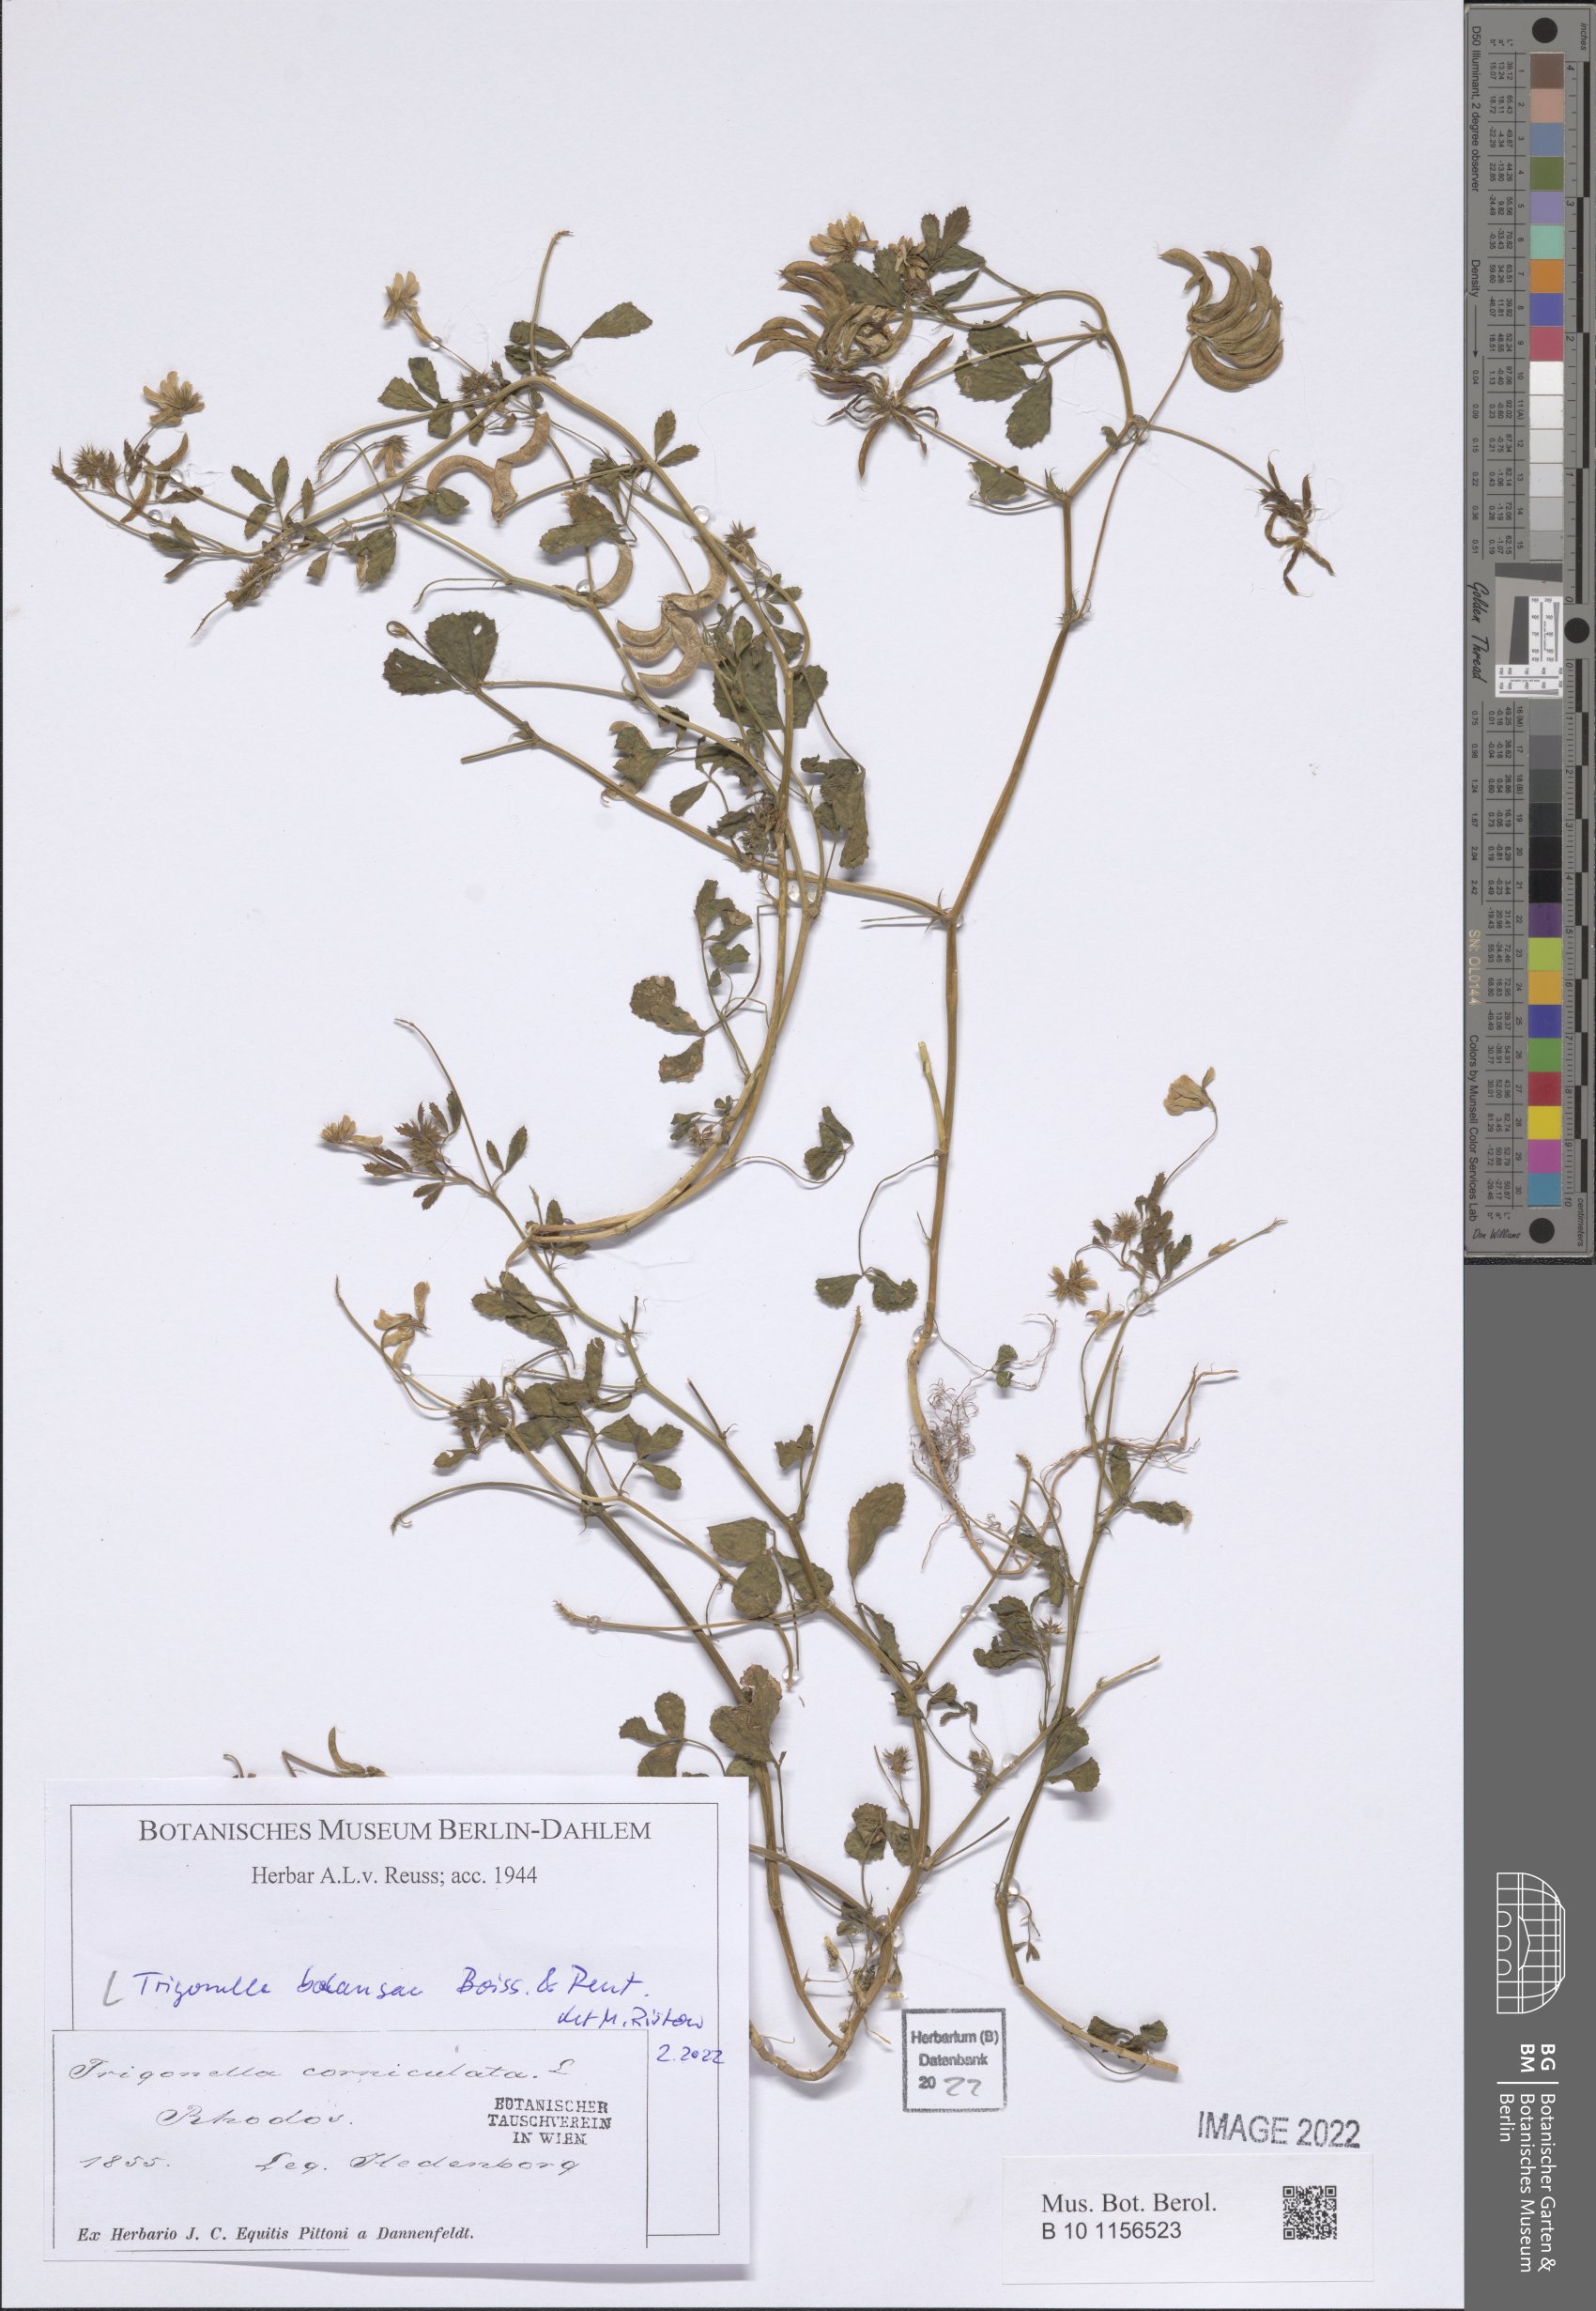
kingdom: Plantae
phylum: Tracheophyta
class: Magnoliopsida
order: Fabales
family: Fabaceae
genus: Trigonella
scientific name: Trigonella balansae
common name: Sickle-fruited fenugreek
